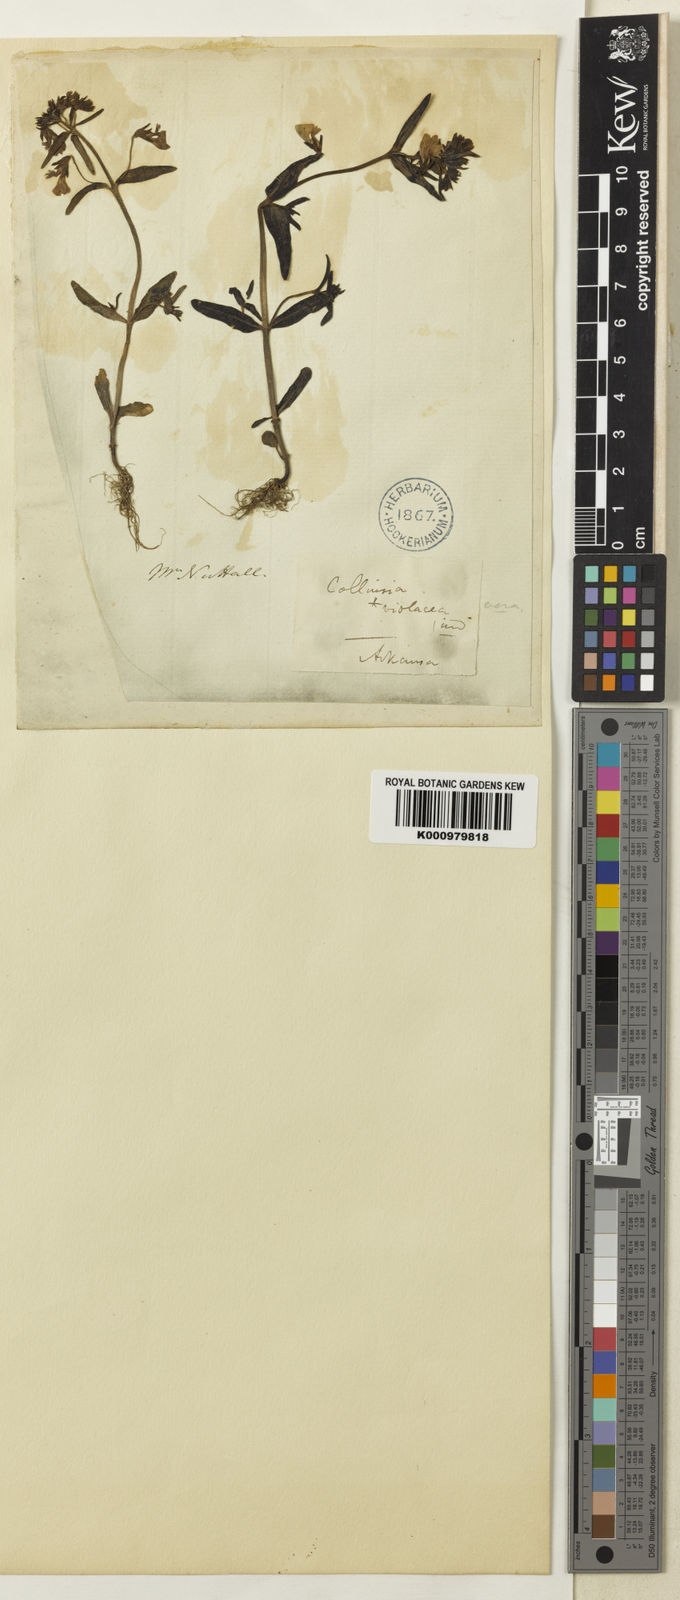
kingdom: Plantae
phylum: Tracheophyta
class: Magnoliopsida
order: Lamiales
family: Plantaginaceae
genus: Collinsia
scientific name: Collinsia violacea
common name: Violet collinsia
